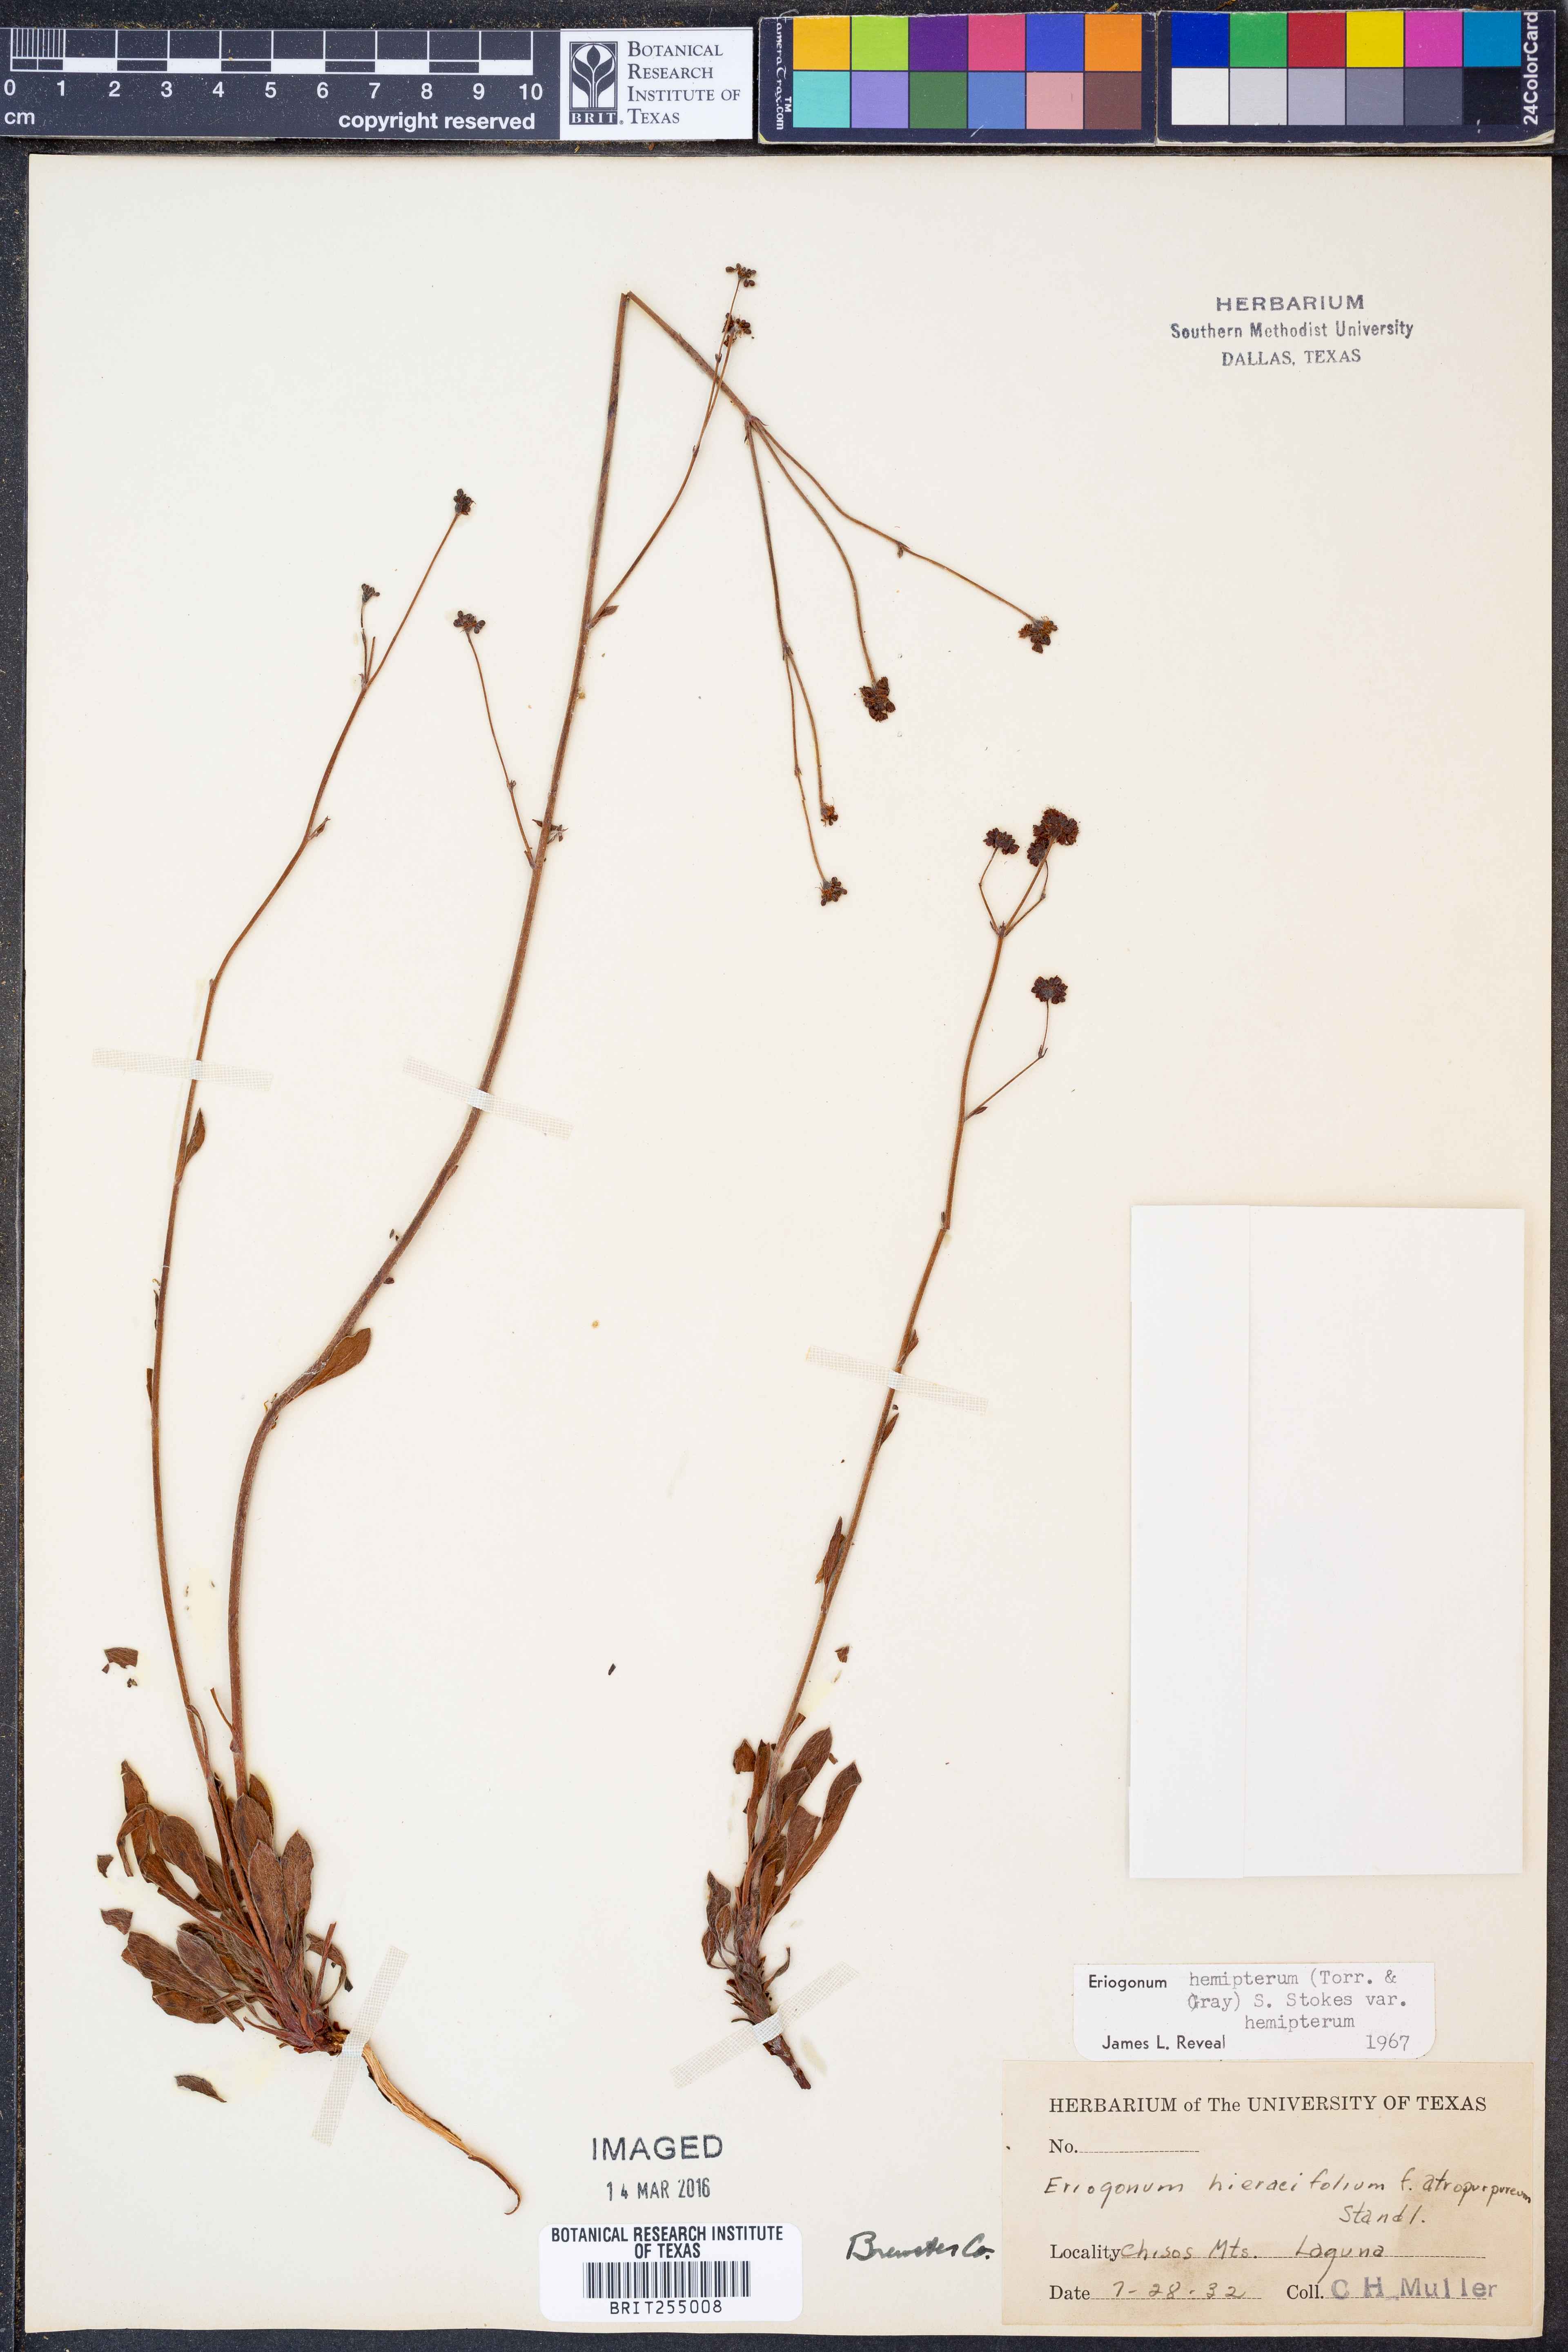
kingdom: Plantae
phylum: Tracheophyta
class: Magnoliopsida
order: Caryophyllales
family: Polygonaceae
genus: Eriogonum
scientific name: Eriogonum hemipterum
